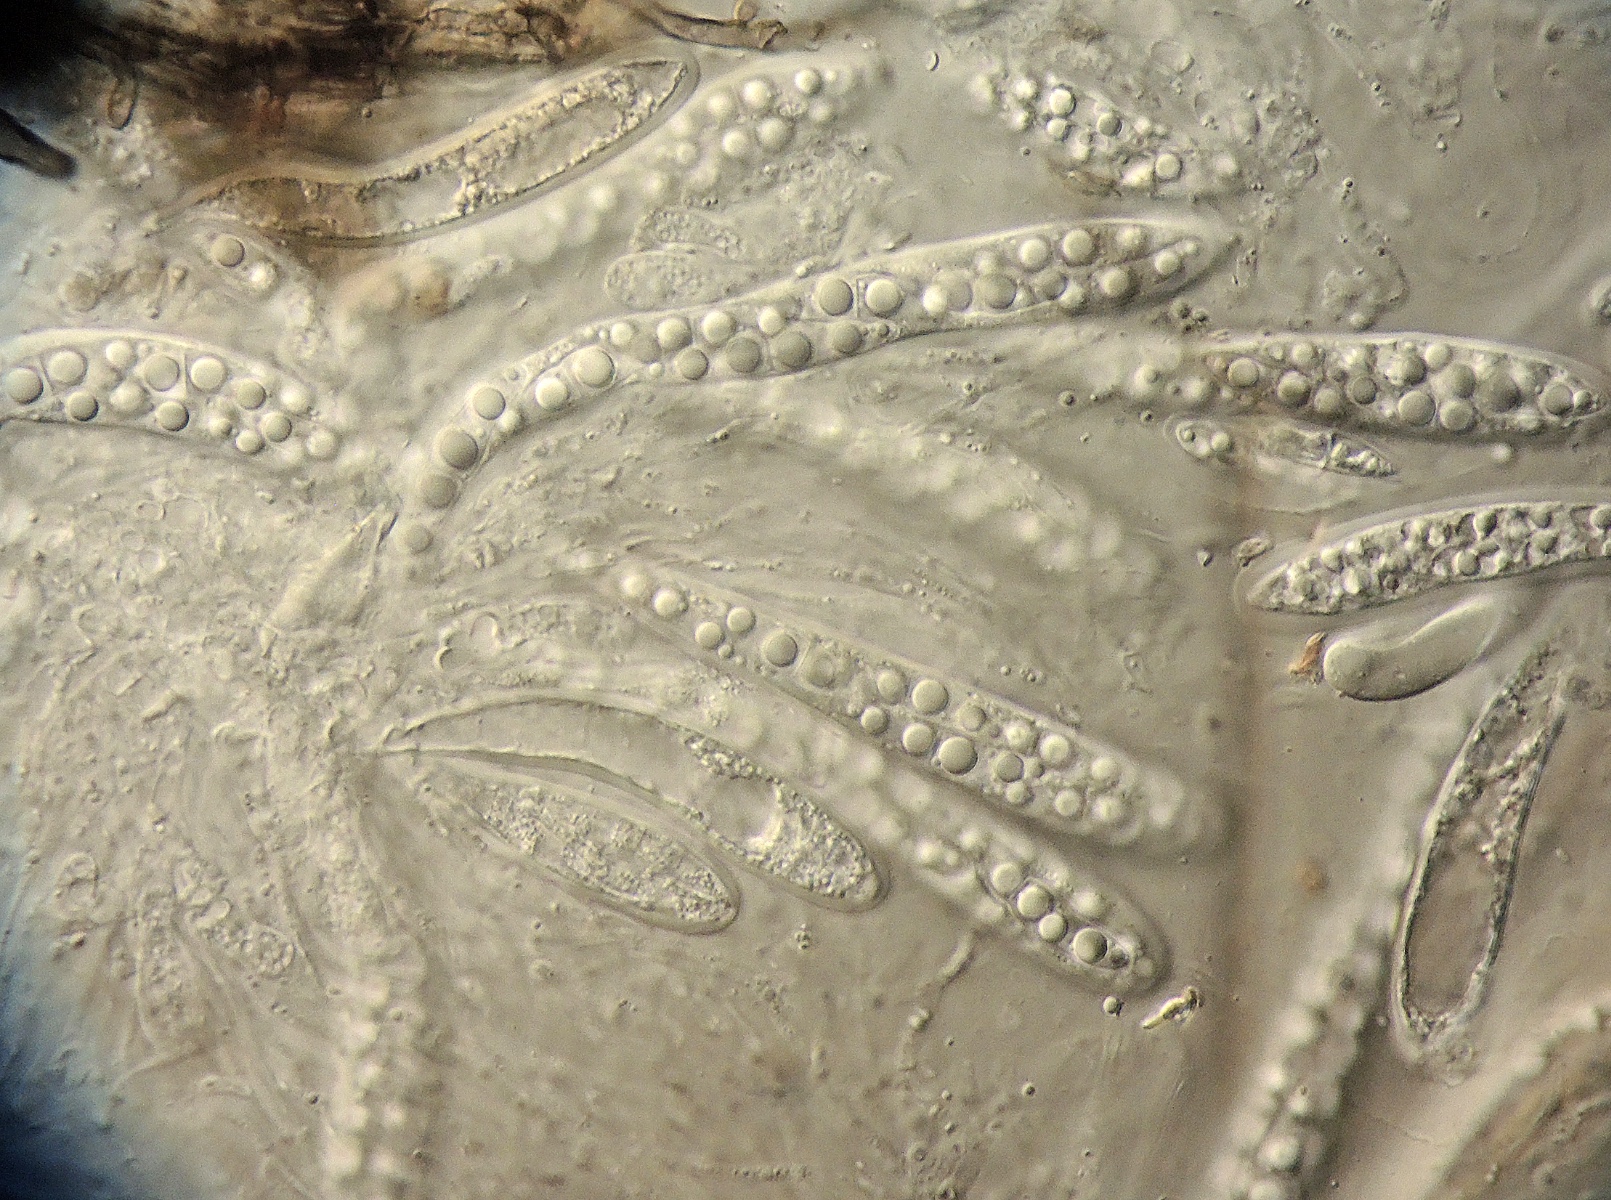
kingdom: Fungi
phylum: Ascomycota
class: Dothideomycetes
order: Pleosporales
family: Leptosphaeriaceae
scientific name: Leptosphaeriaceae
